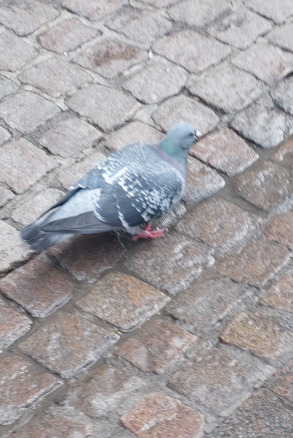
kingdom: Animalia
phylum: Chordata
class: Aves
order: Columbiformes
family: Columbidae
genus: Columba
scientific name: Columba livia
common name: Tamdue
